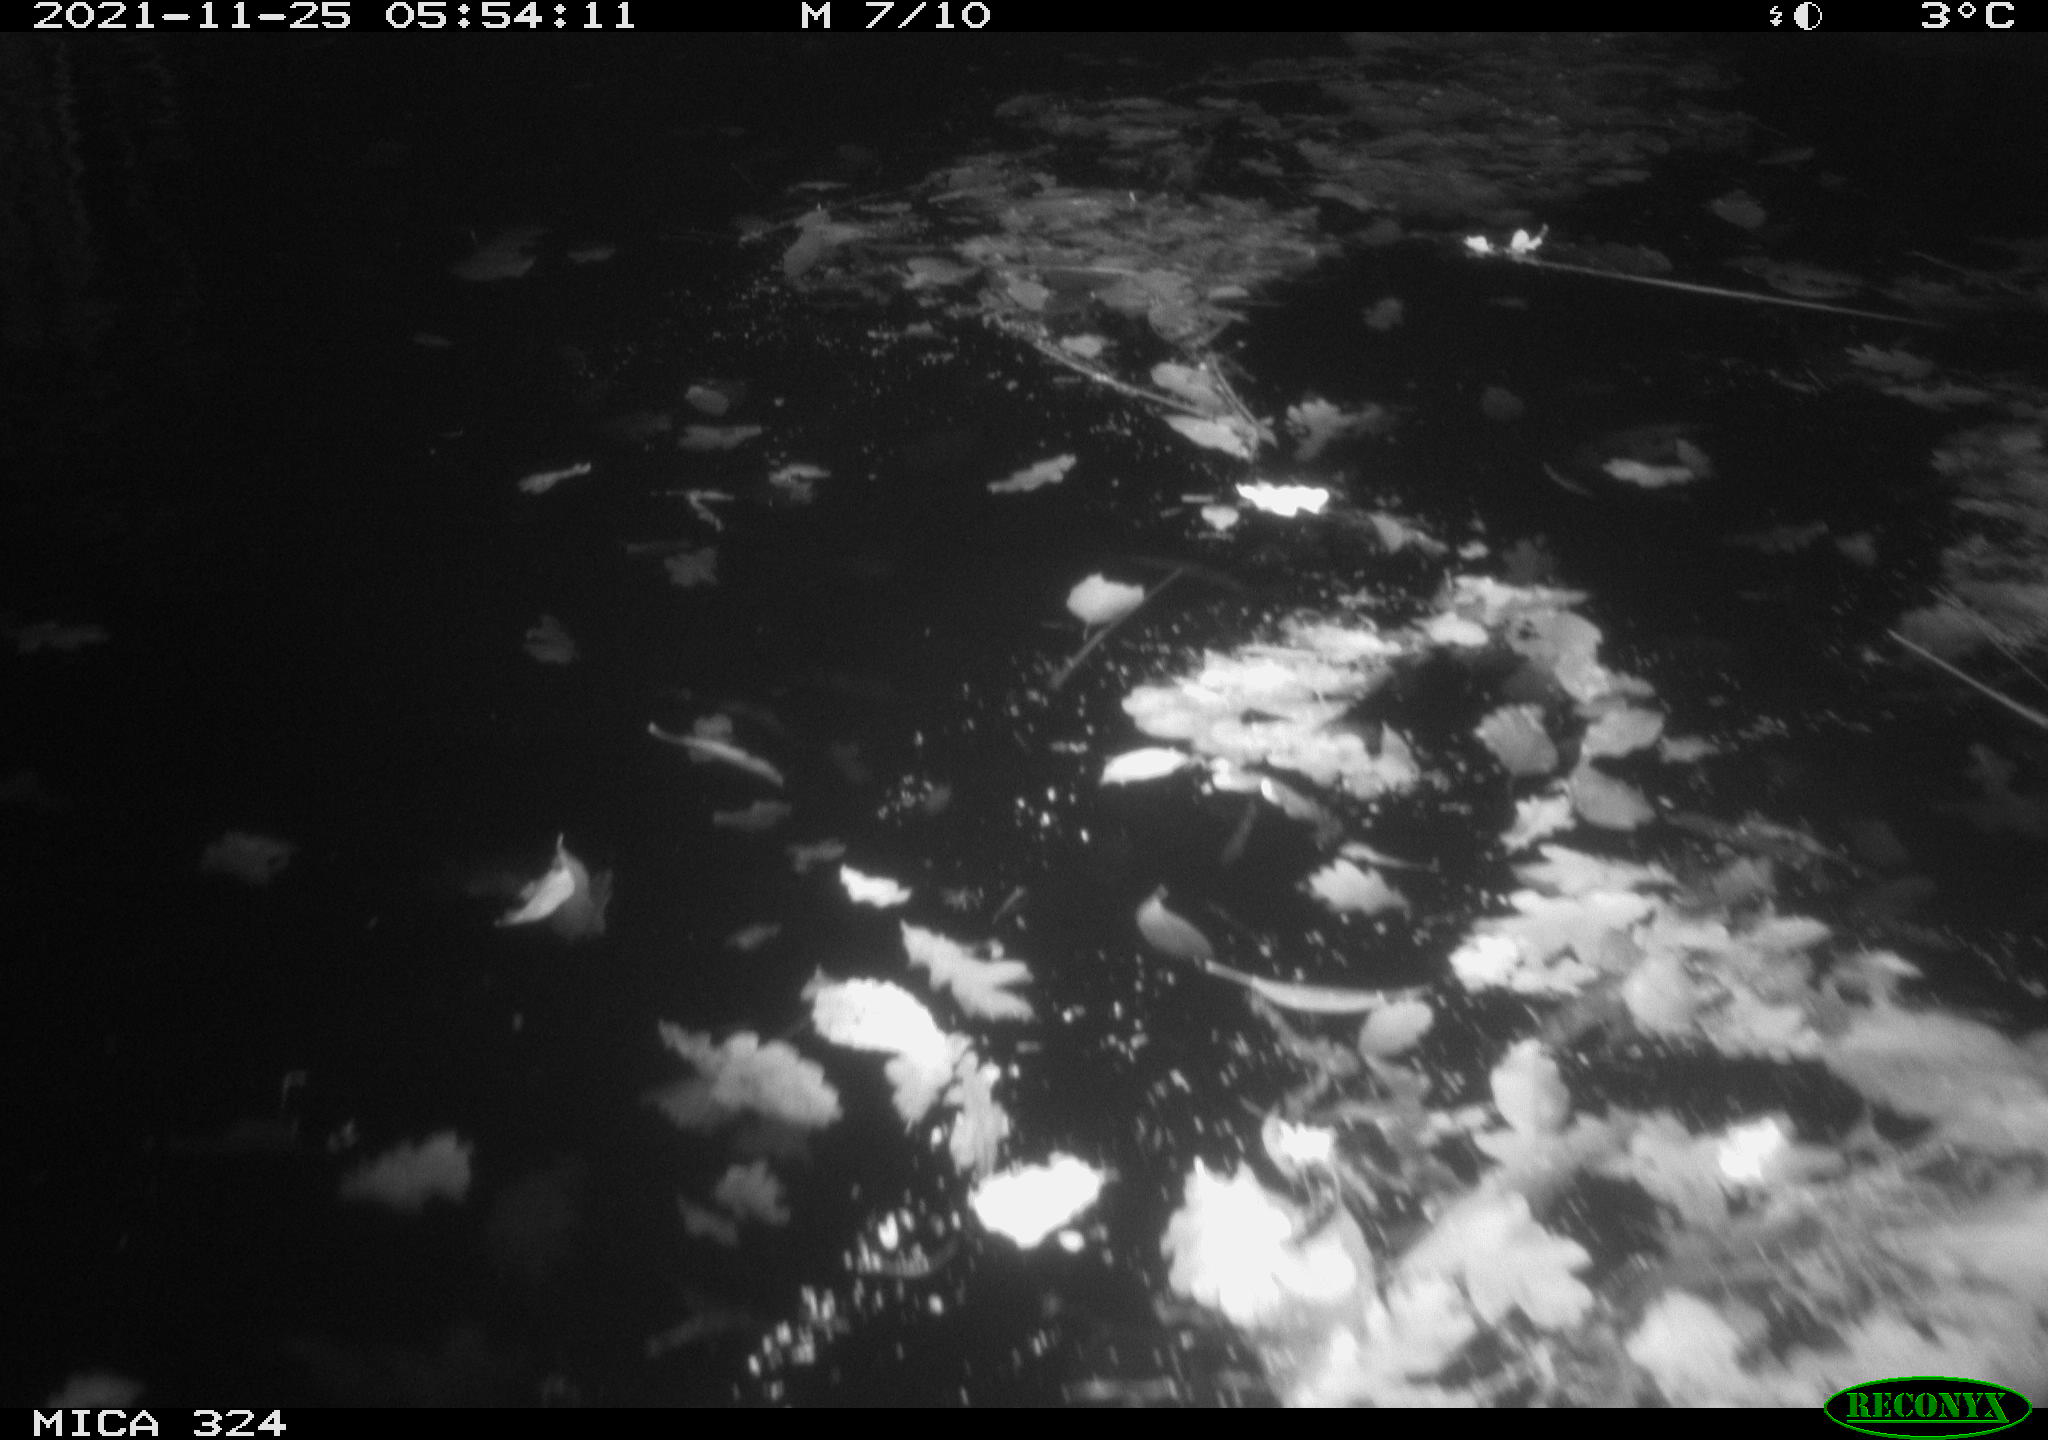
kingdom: Animalia
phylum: Chordata
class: Mammalia
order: Rodentia
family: Cricetidae
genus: Ondatra
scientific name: Ondatra zibethicus
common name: Muskrat
